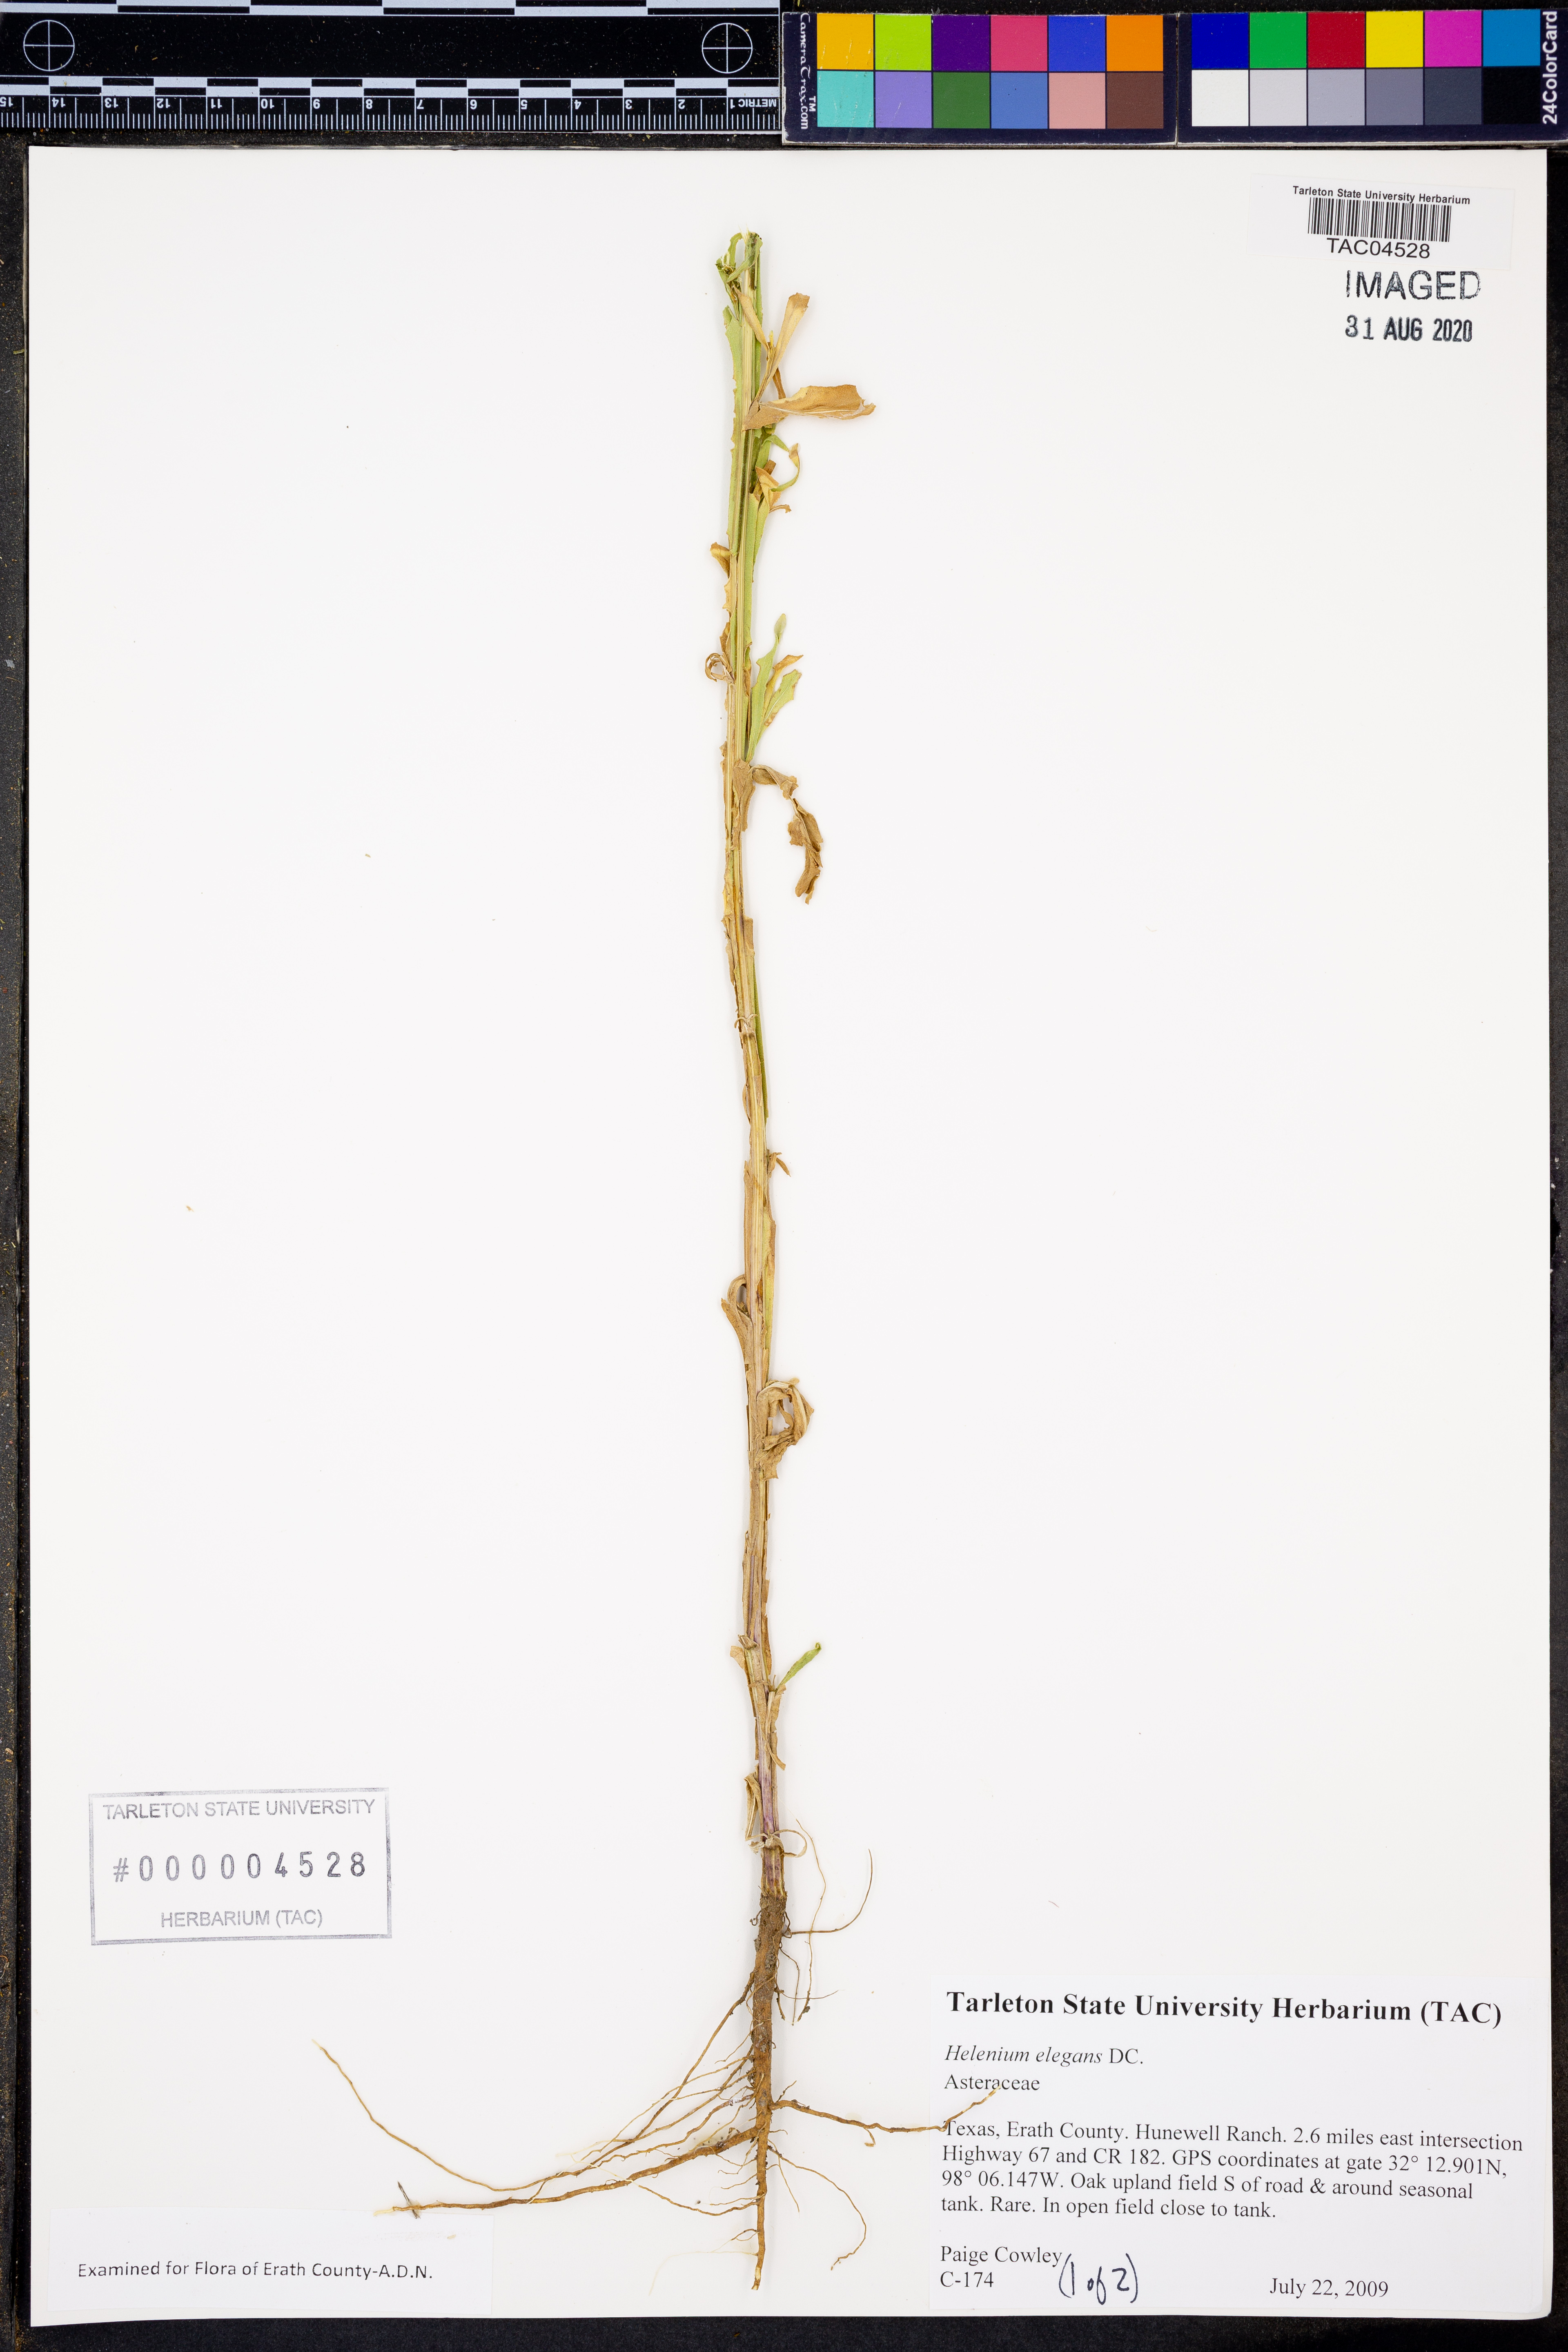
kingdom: Plantae
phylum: Tracheophyta
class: Magnoliopsida
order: Asterales
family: Asteraceae
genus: Helenium
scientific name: Helenium elegans
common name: Pretty sneezeweed
